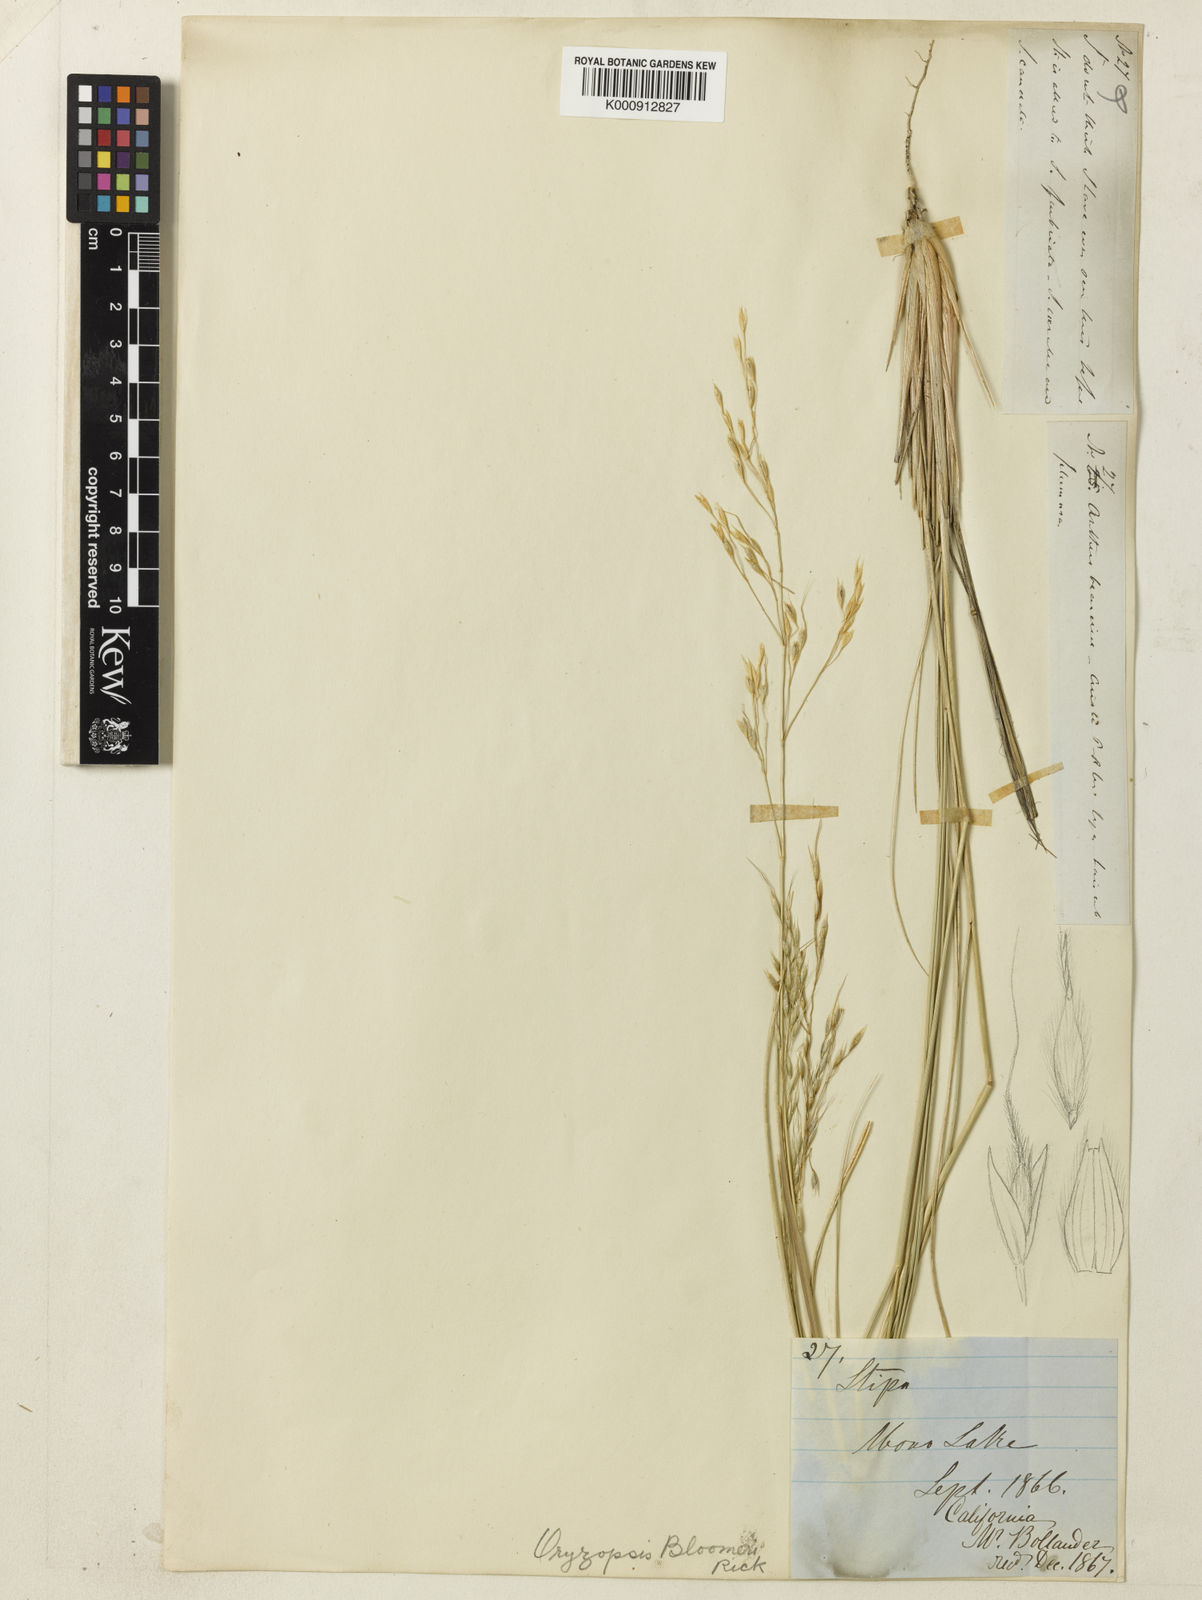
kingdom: Plantae
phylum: Tracheophyta
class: Liliopsida
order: Poales
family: Poaceae
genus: Eriocoma
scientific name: Eriocoma bloomeri
